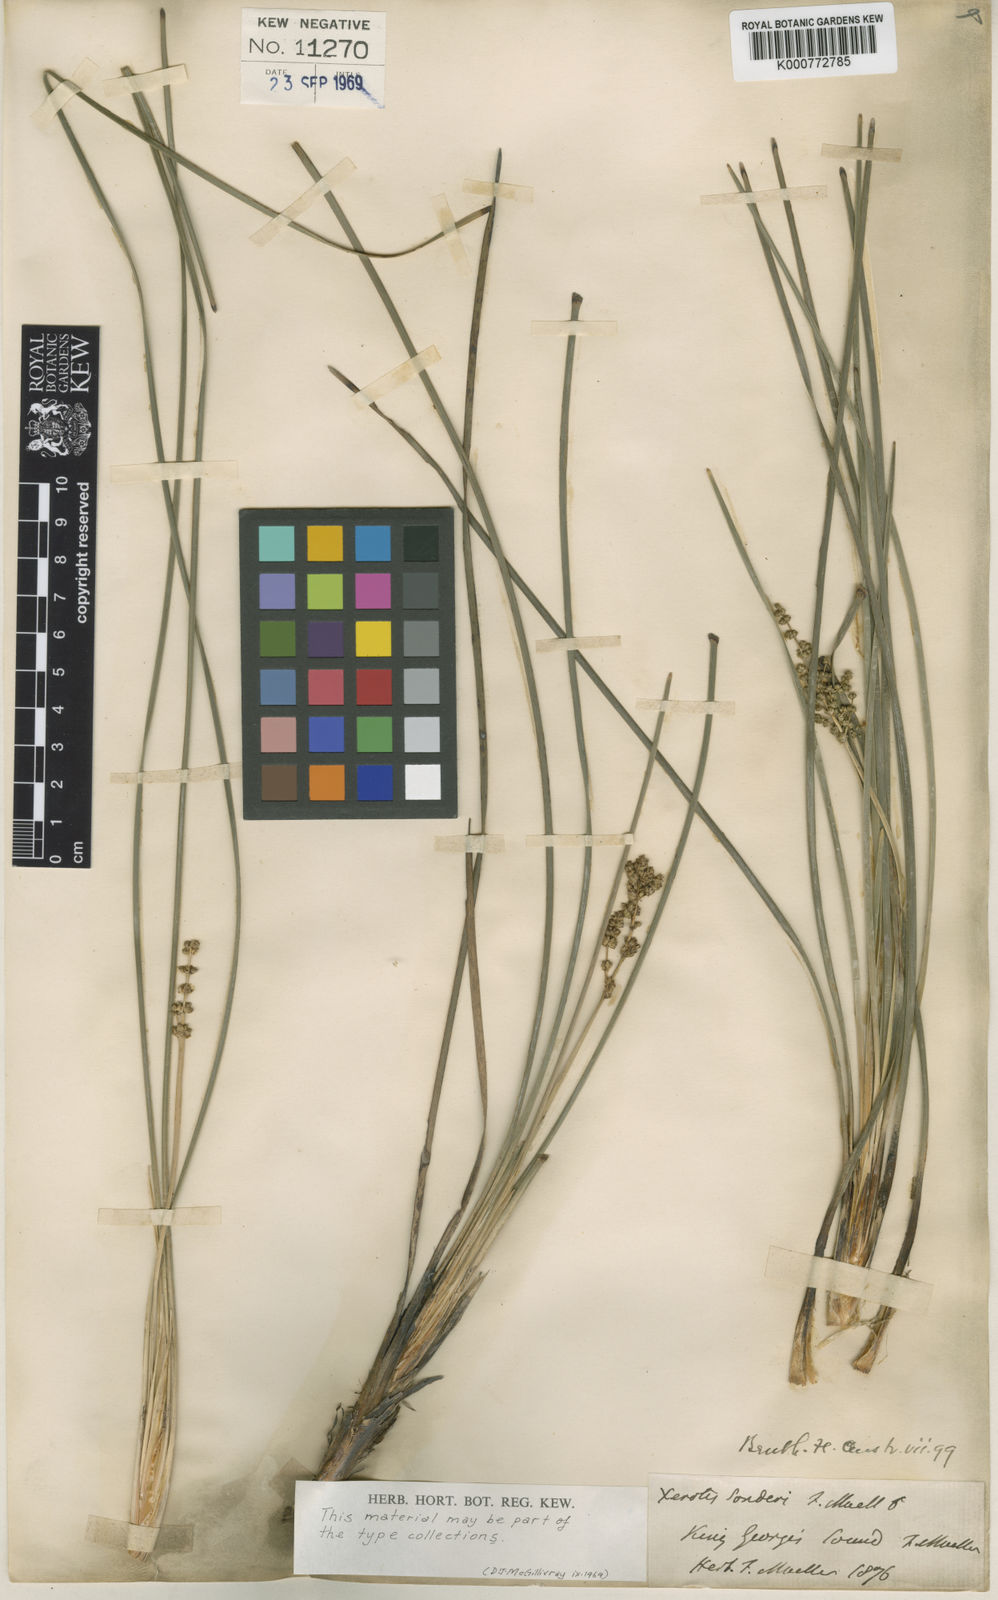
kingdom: Plantae
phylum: Tracheophyta
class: Liliopsida
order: Asparagales
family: Asparagaceae
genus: Lomandra
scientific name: Lomandra sonderi
